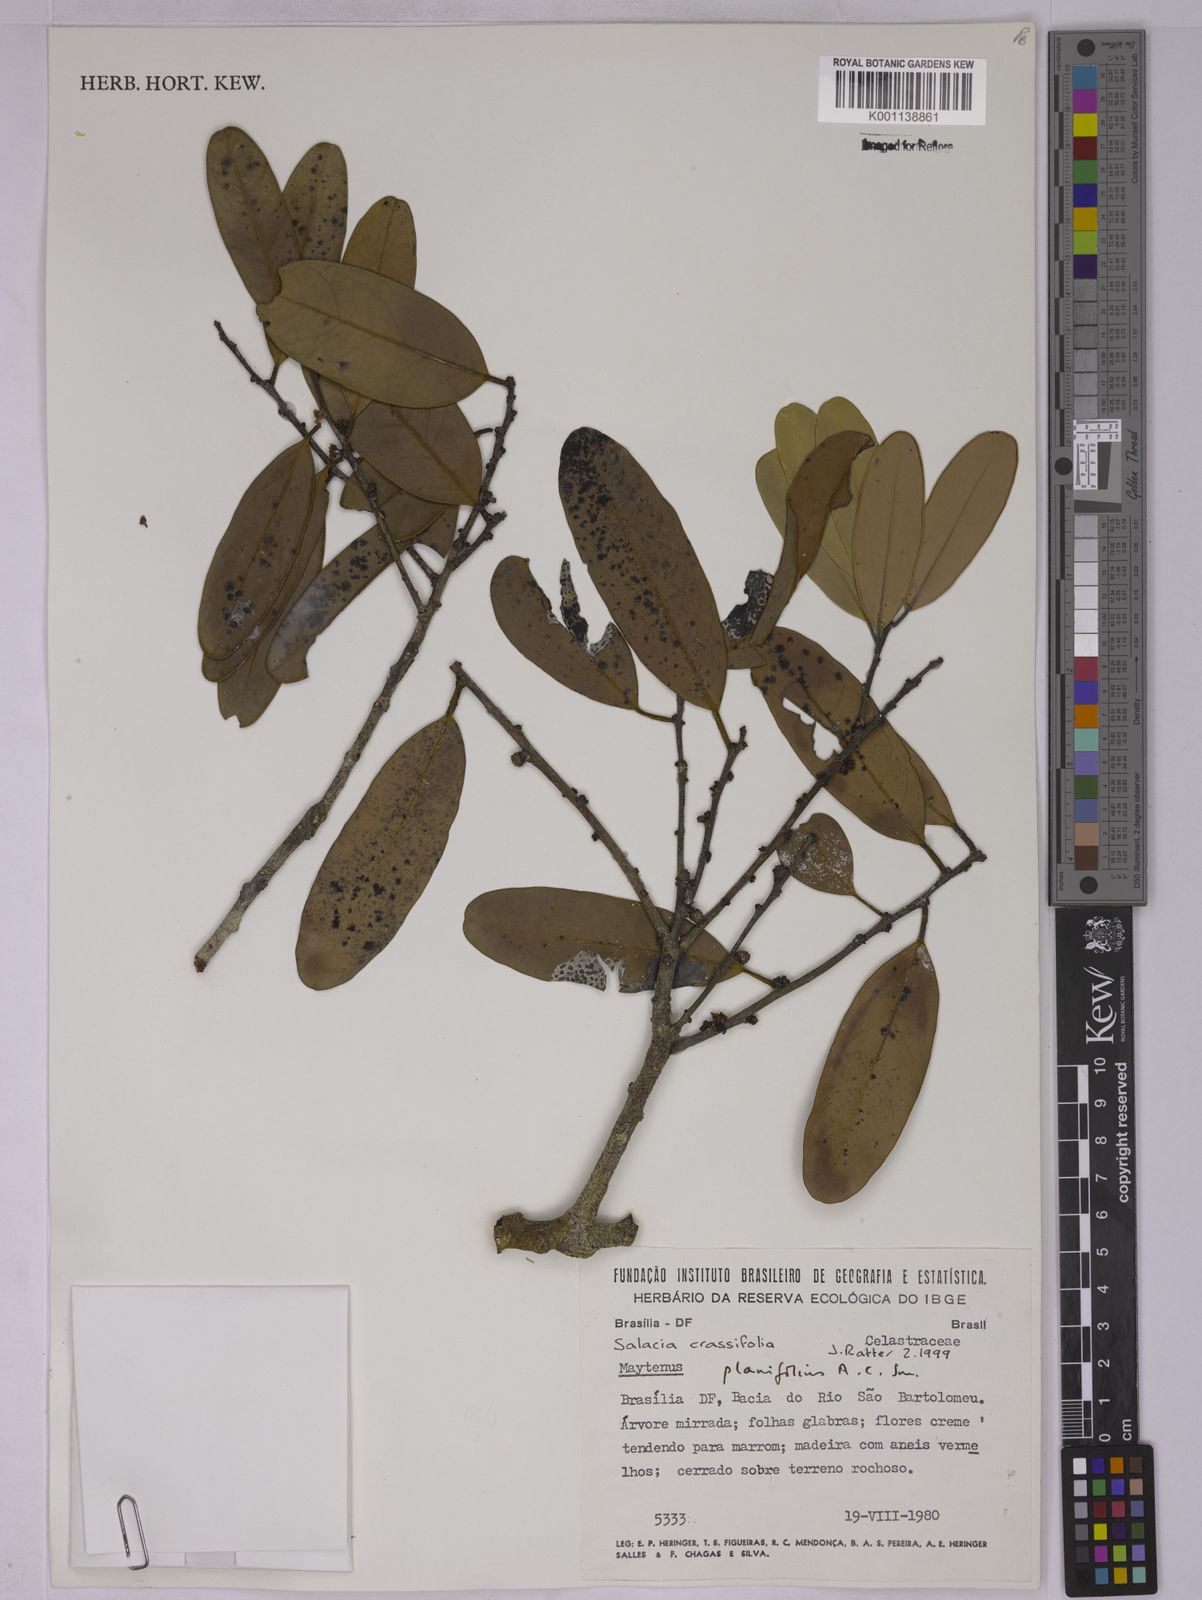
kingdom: Plantae
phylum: Tracheophyta
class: Magnoliopsida
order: Celastrales
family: Celastraceae
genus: Salacia
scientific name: Salacia crassifolia
